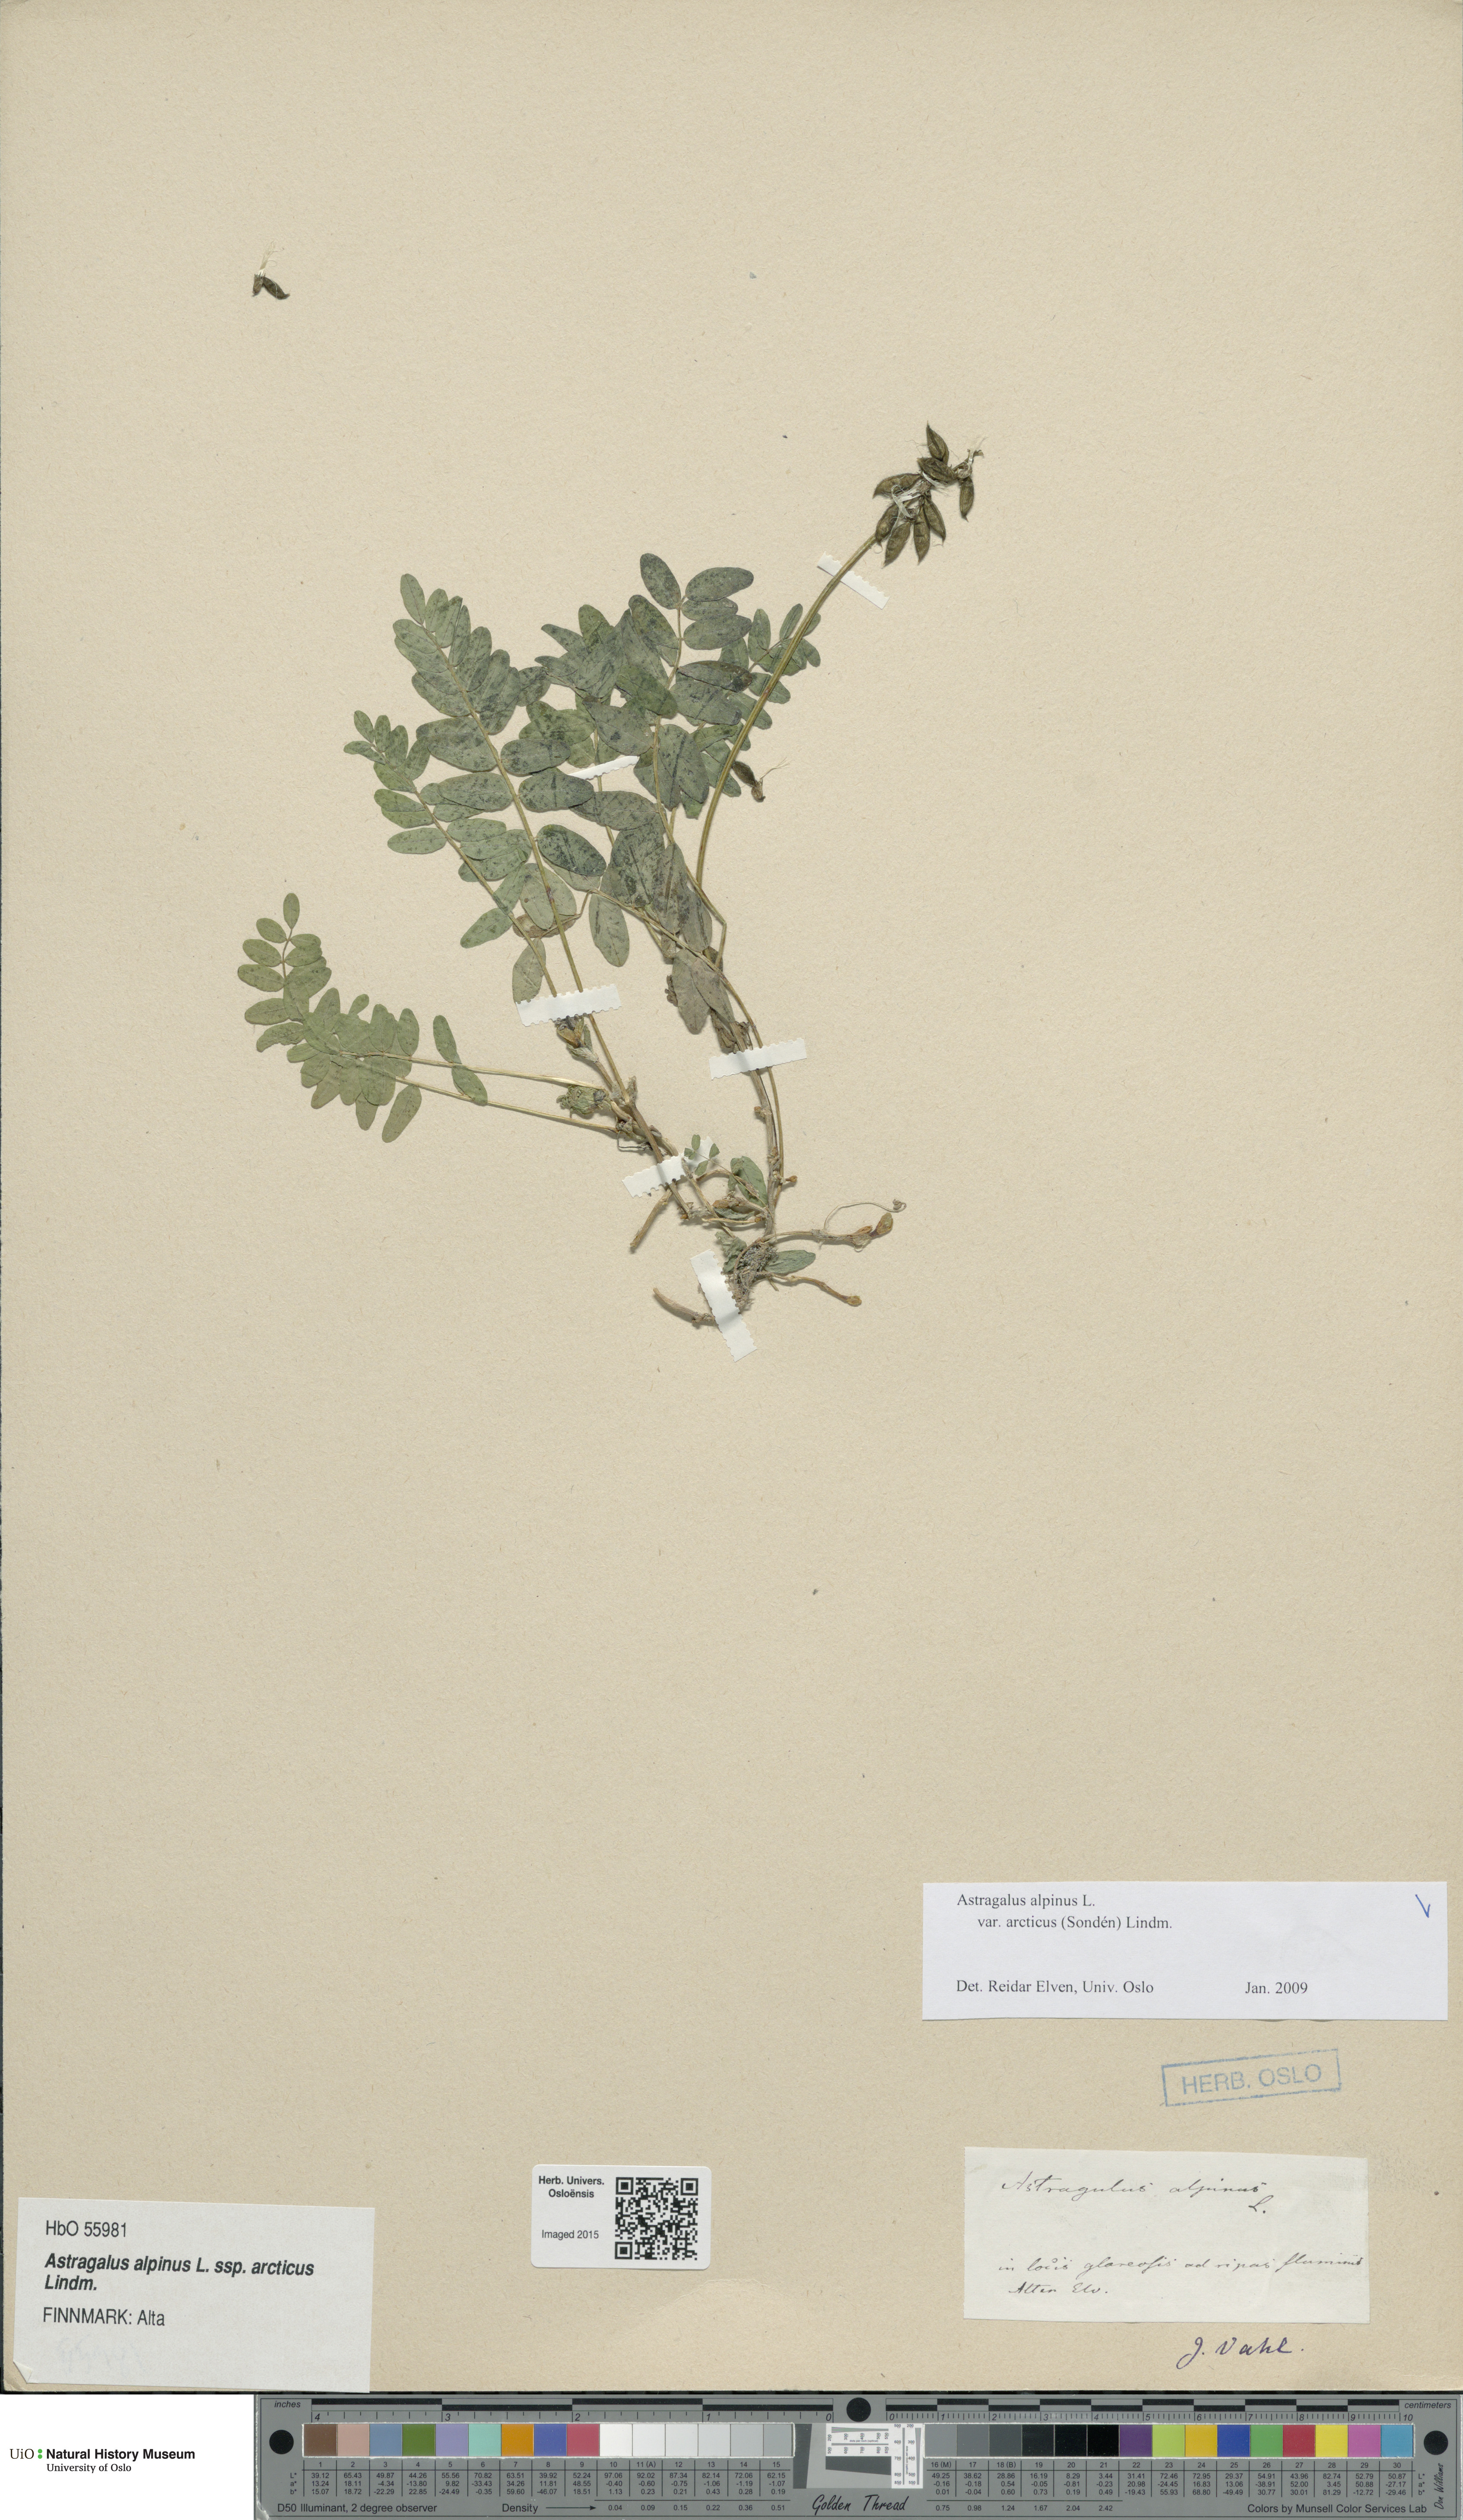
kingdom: Plantae
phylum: Tracheophyta
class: Magnoliopsida
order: Fabales
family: Fabaceae
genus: Astragalus
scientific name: Astragalus norvegicus
